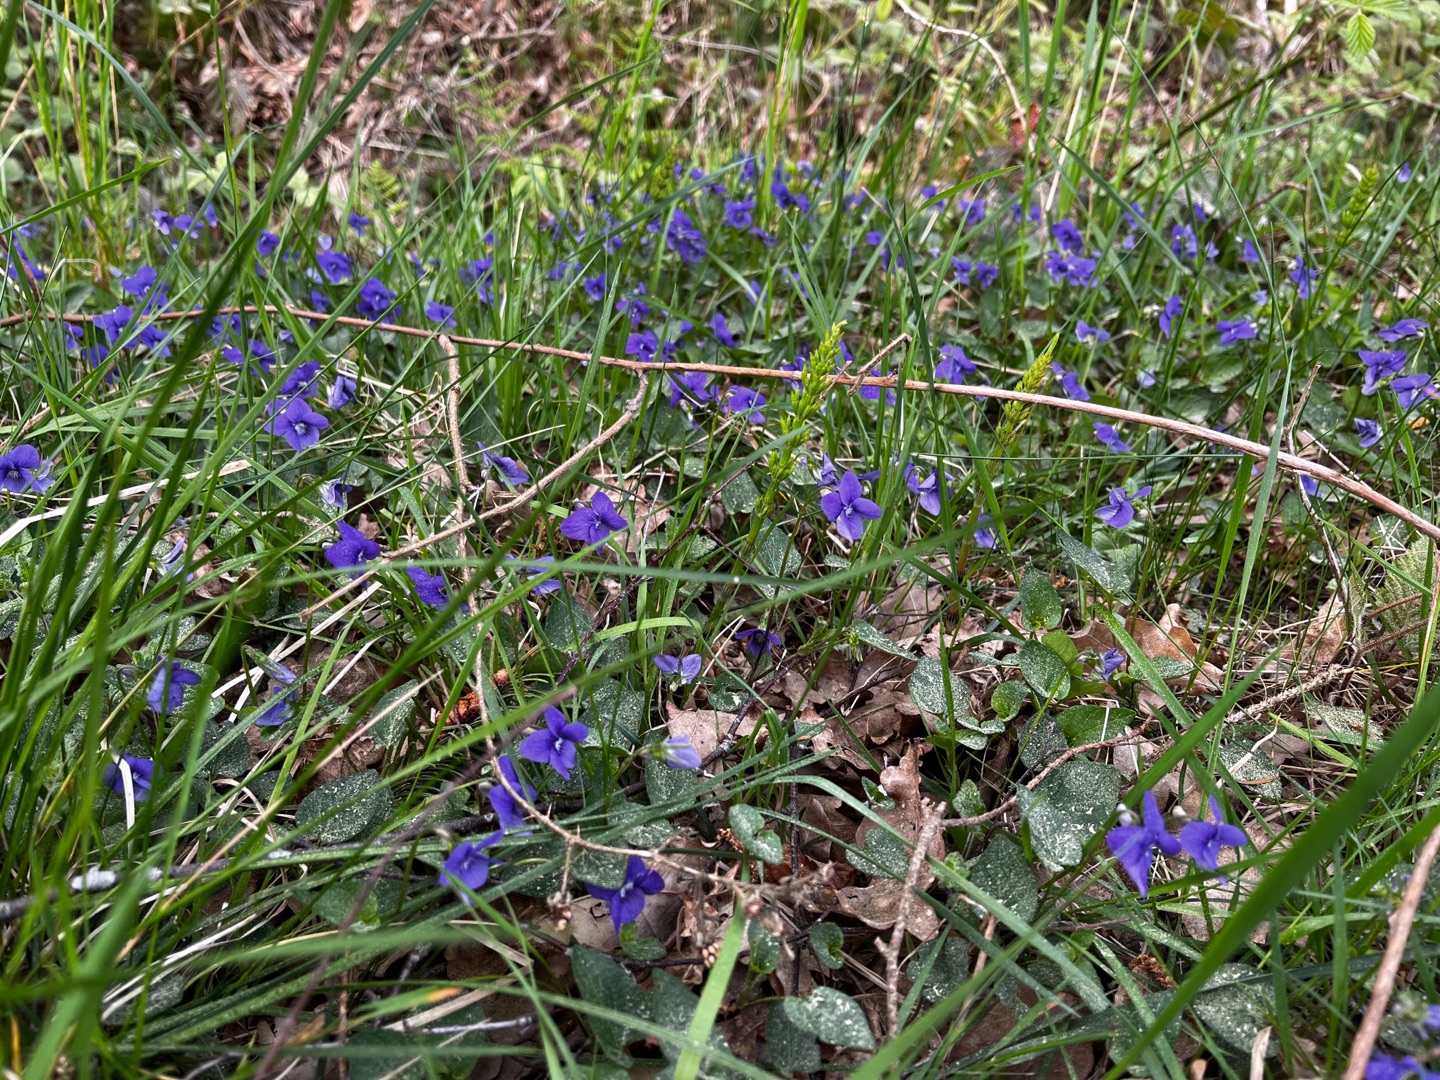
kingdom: Plantae
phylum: Tracheophyta
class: Magnoliopsida
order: Malpighiales
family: Violaceae
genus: Viola
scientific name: Viola canina
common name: Hunde-viol
